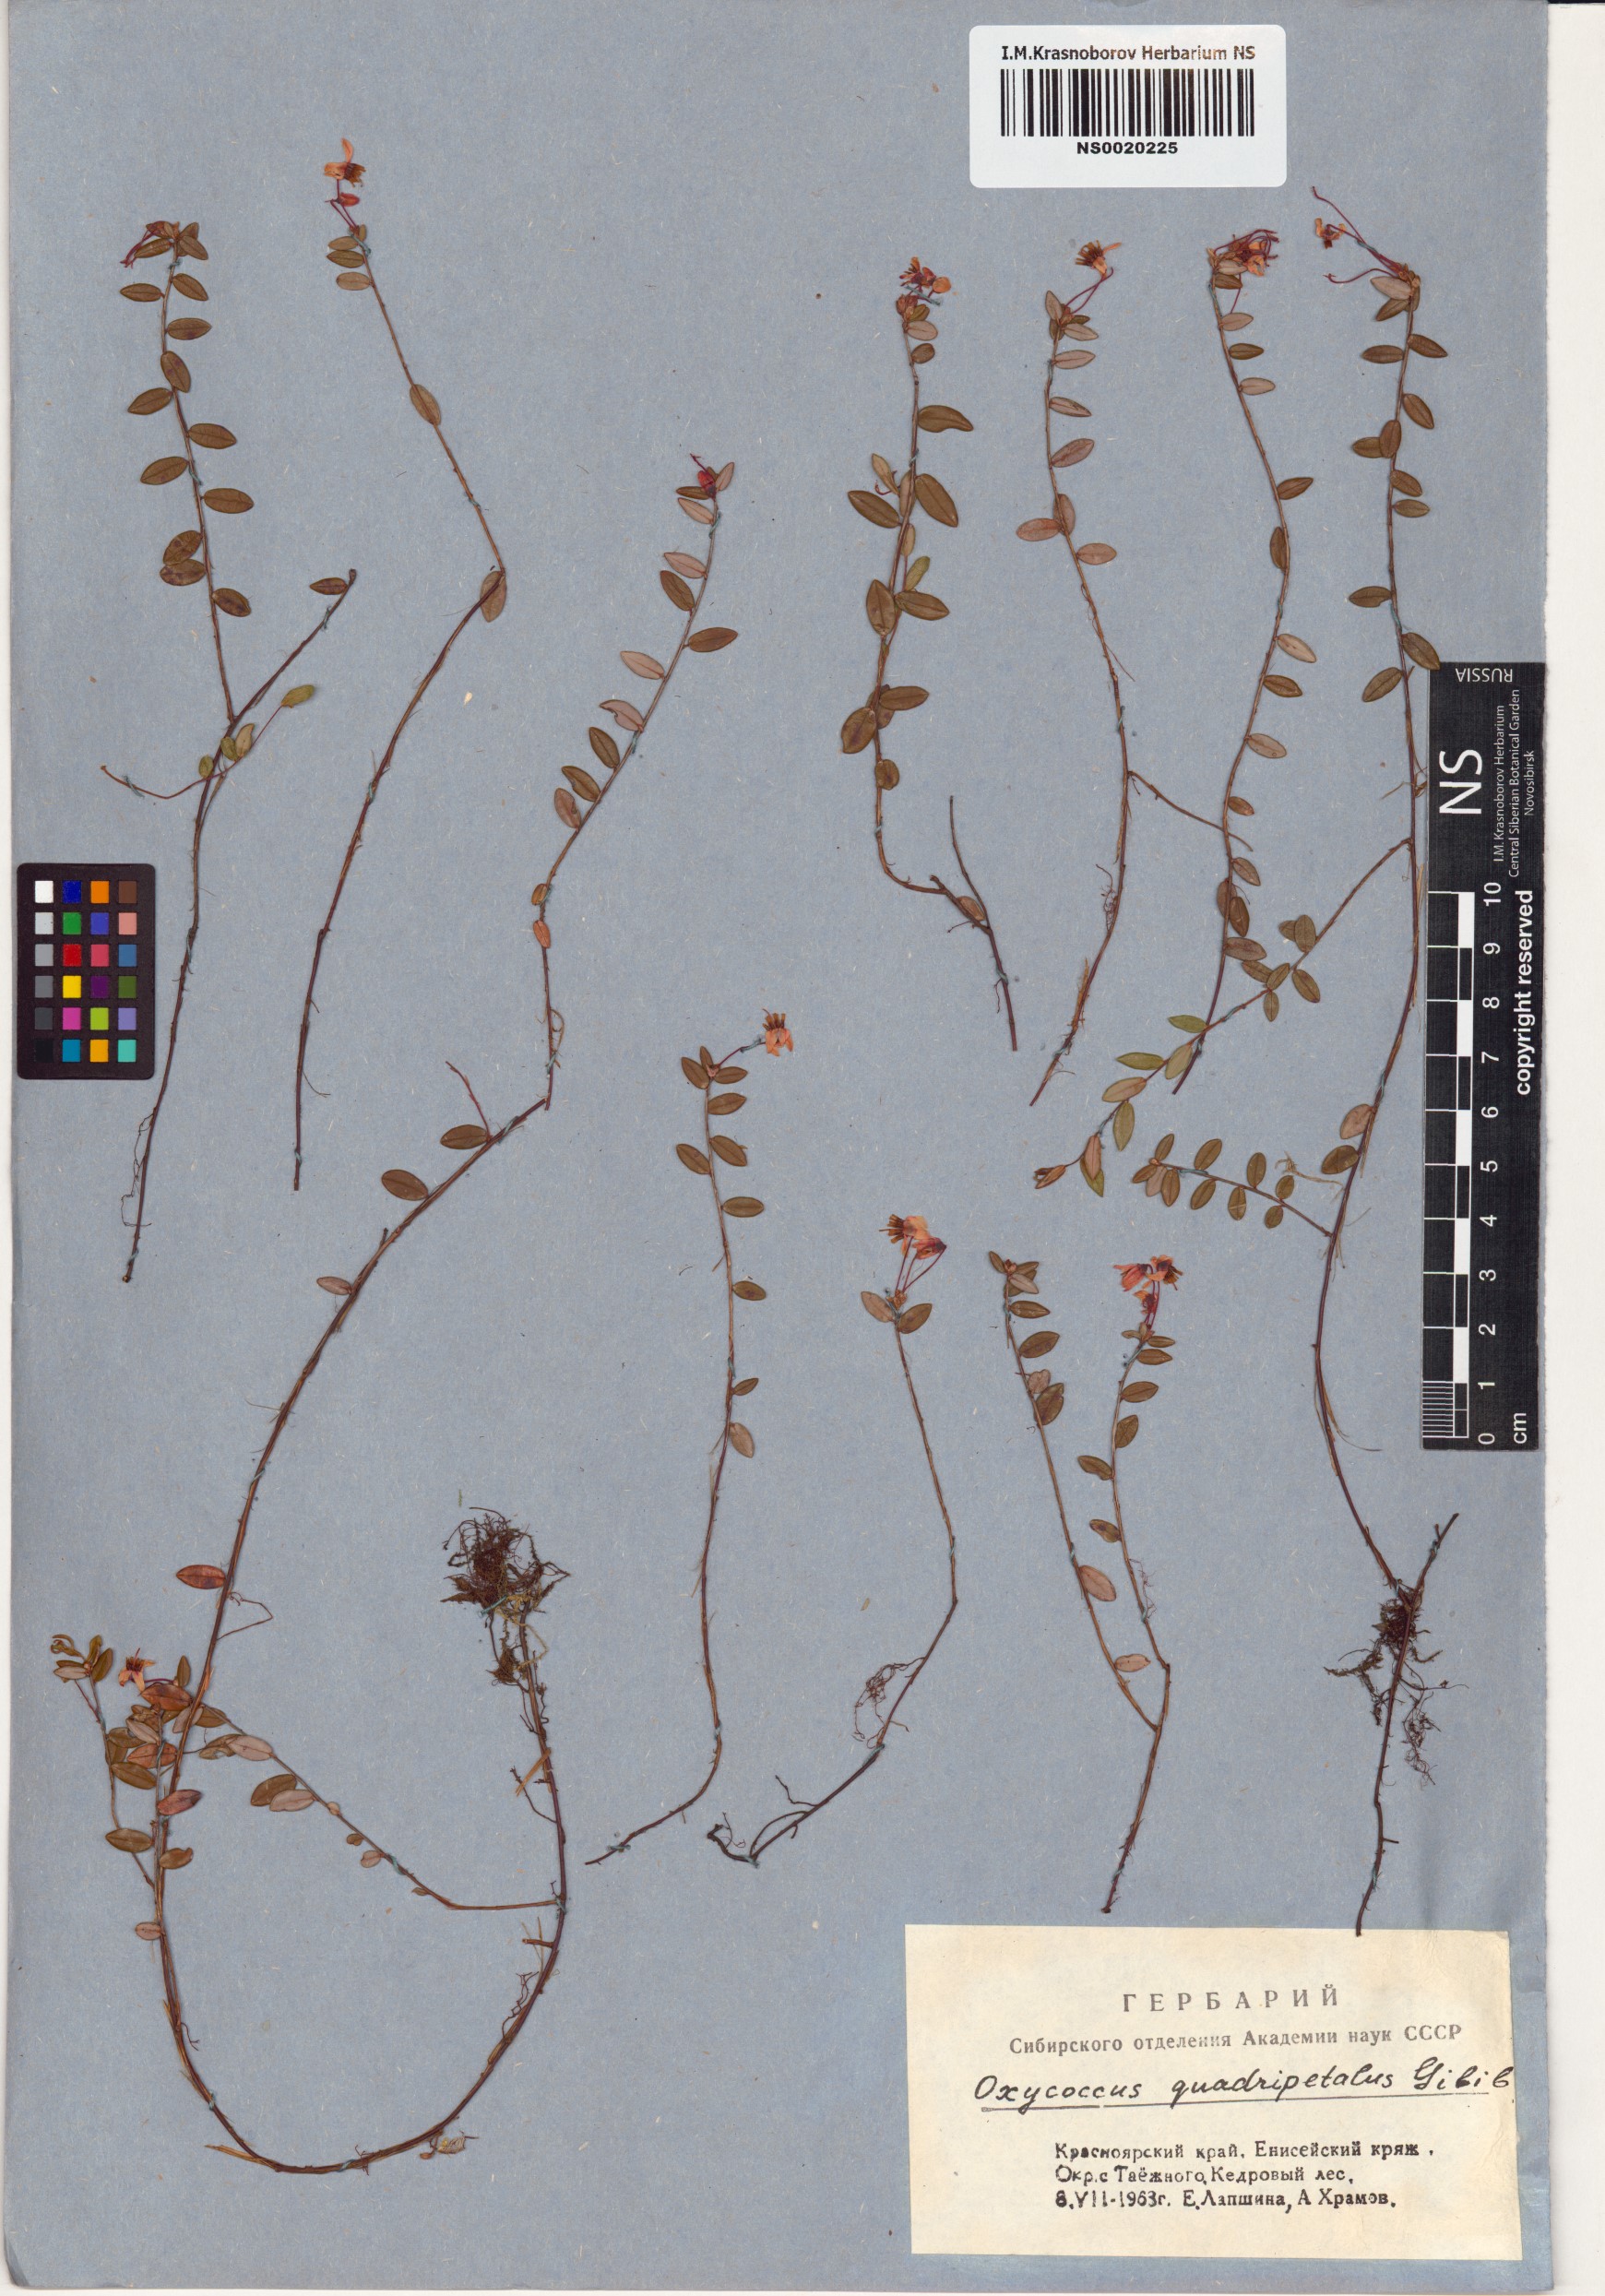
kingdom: Plantae
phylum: Tracheophyta
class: Magnoliopsida
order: Ericales
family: Ericaceae
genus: Vaccinium
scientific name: Vaccinium oxycoccos
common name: Cranberry
